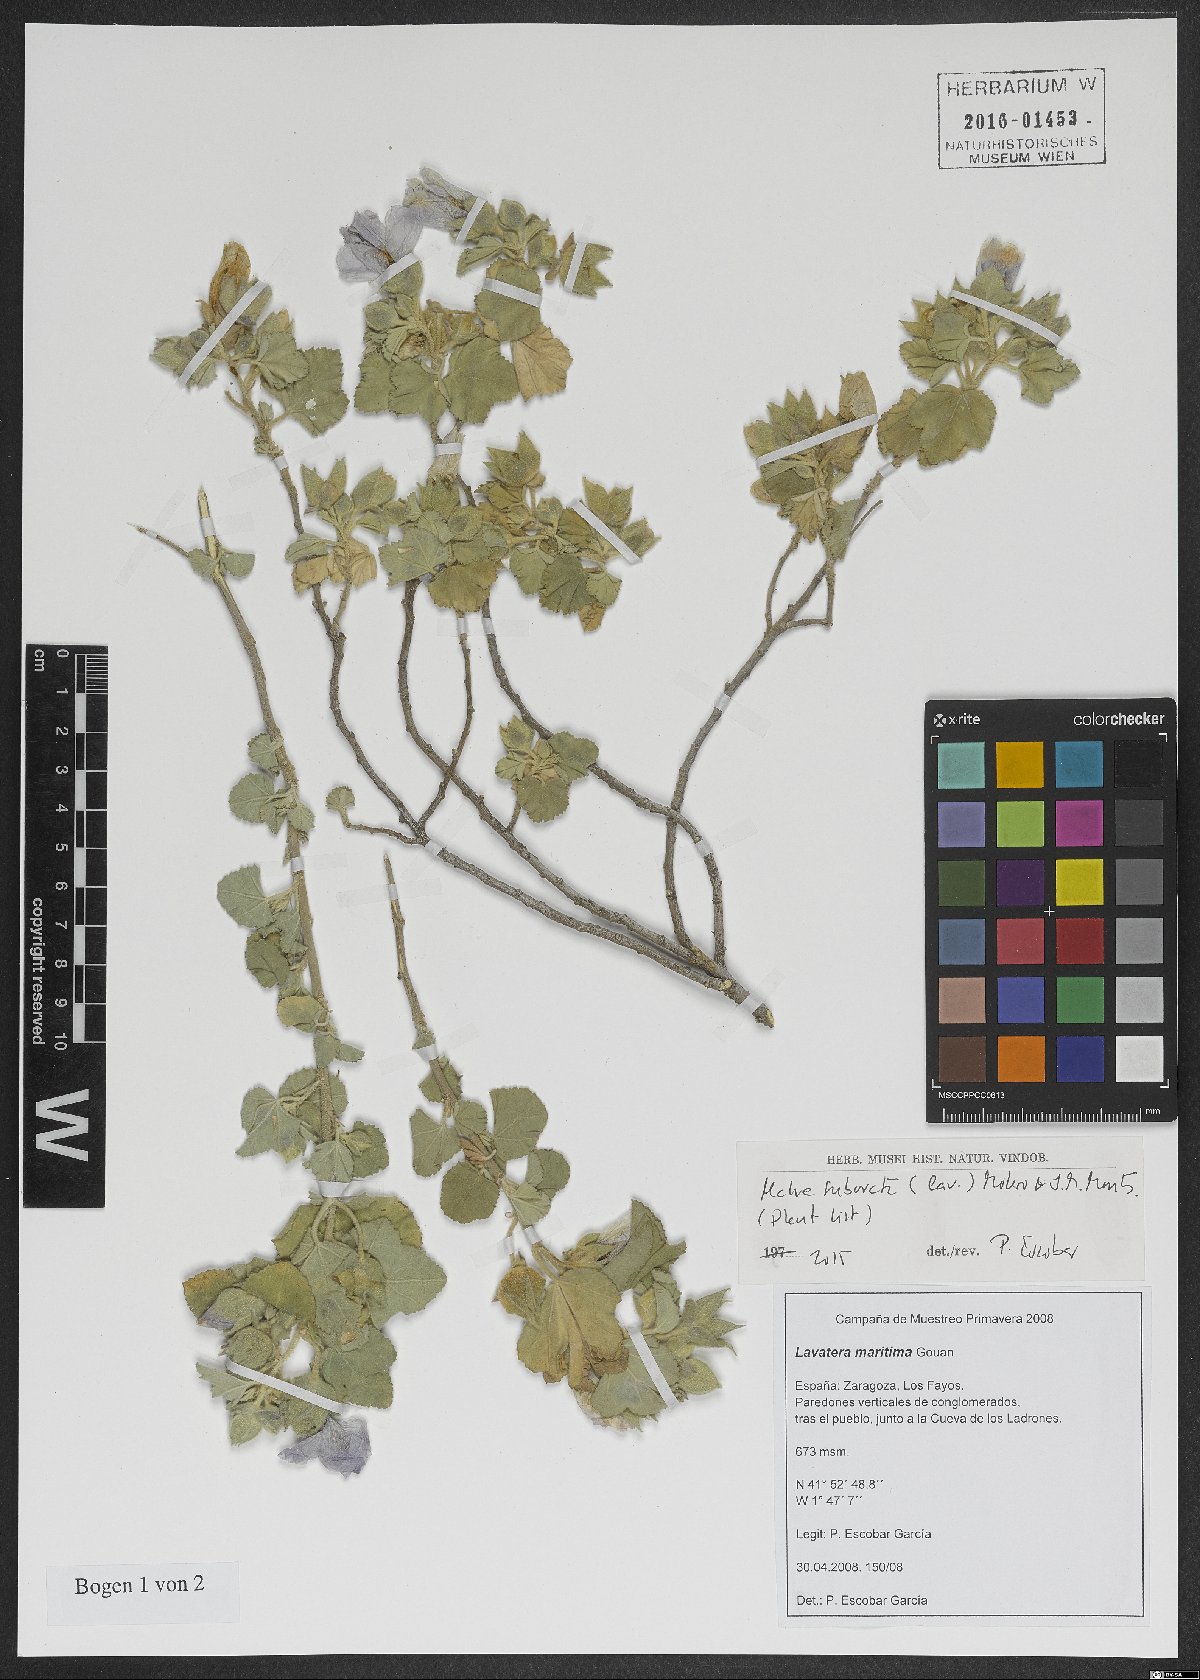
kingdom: Plantae
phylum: Tracheophyta
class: Magnoliopsida
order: Malvales
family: Malvaceae
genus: Malva
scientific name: Malva subovata
